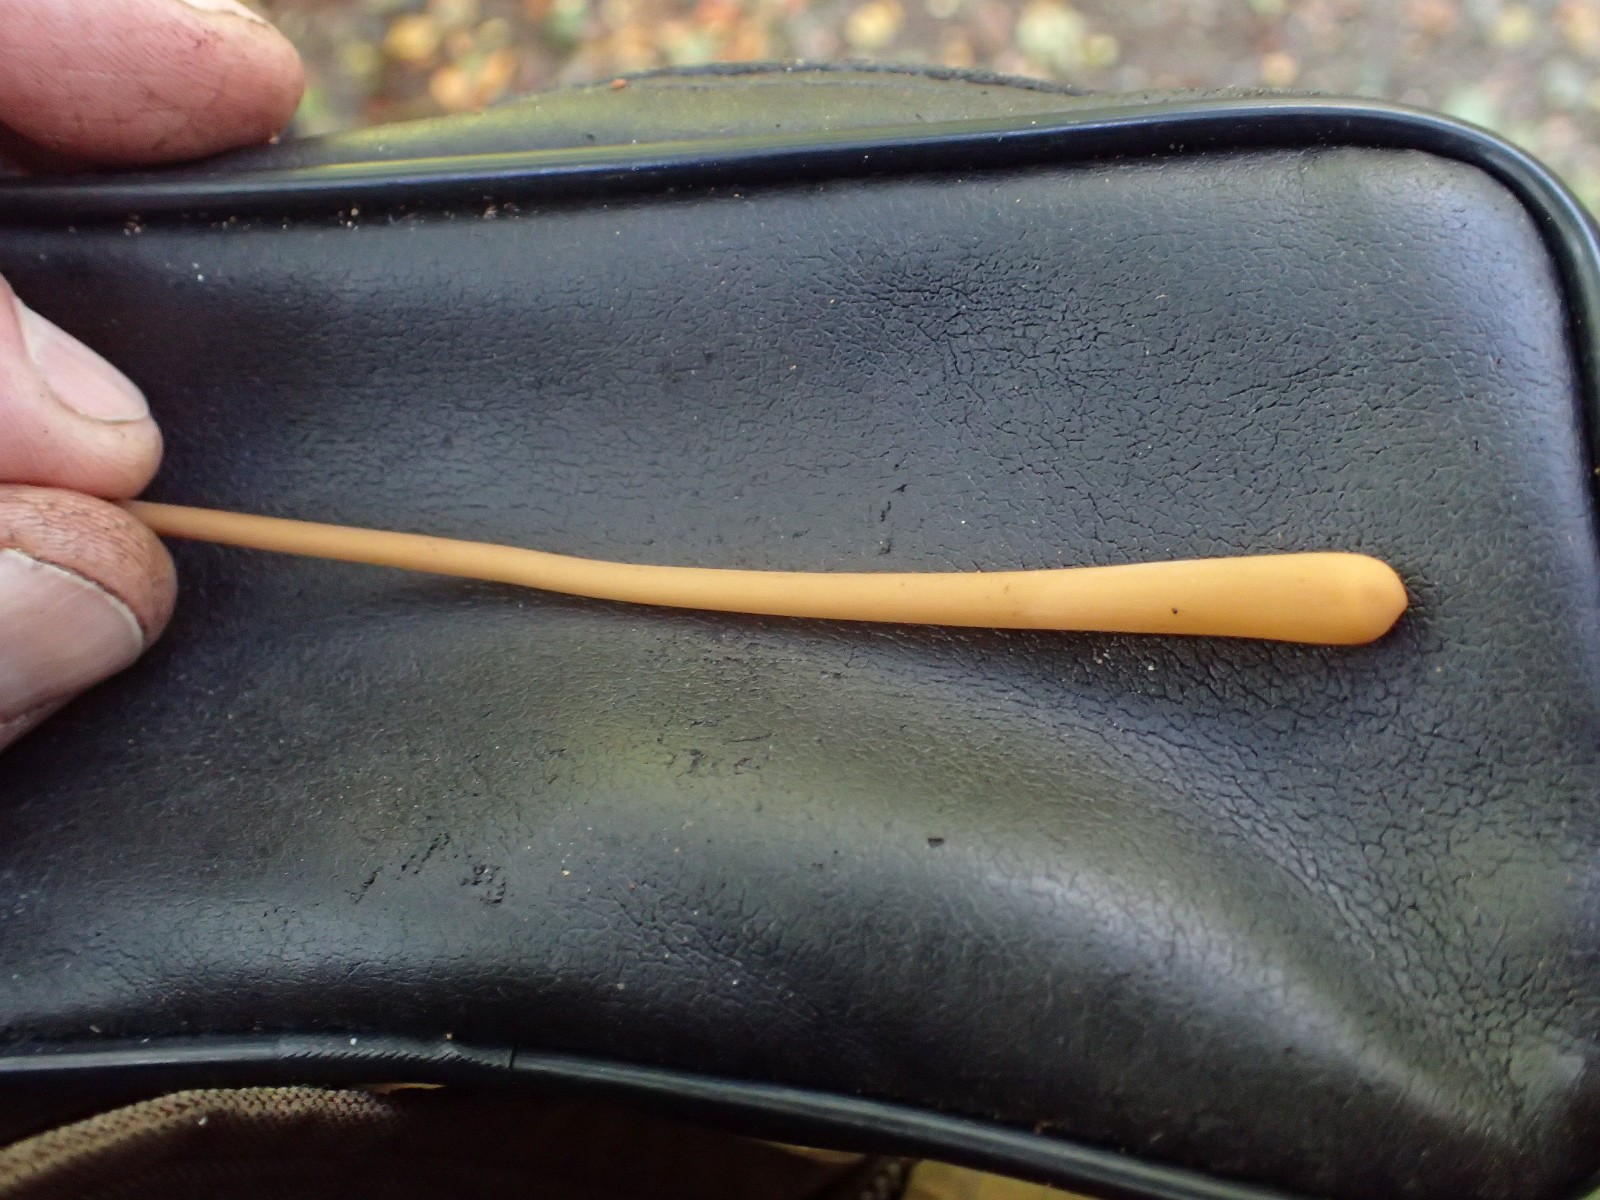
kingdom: Fungi
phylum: Basidiomycota
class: Agaricomycetes
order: Agaricales
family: Typhulaceae
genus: Typhula
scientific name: Typhula fistulosa
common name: pibet rørkølle
